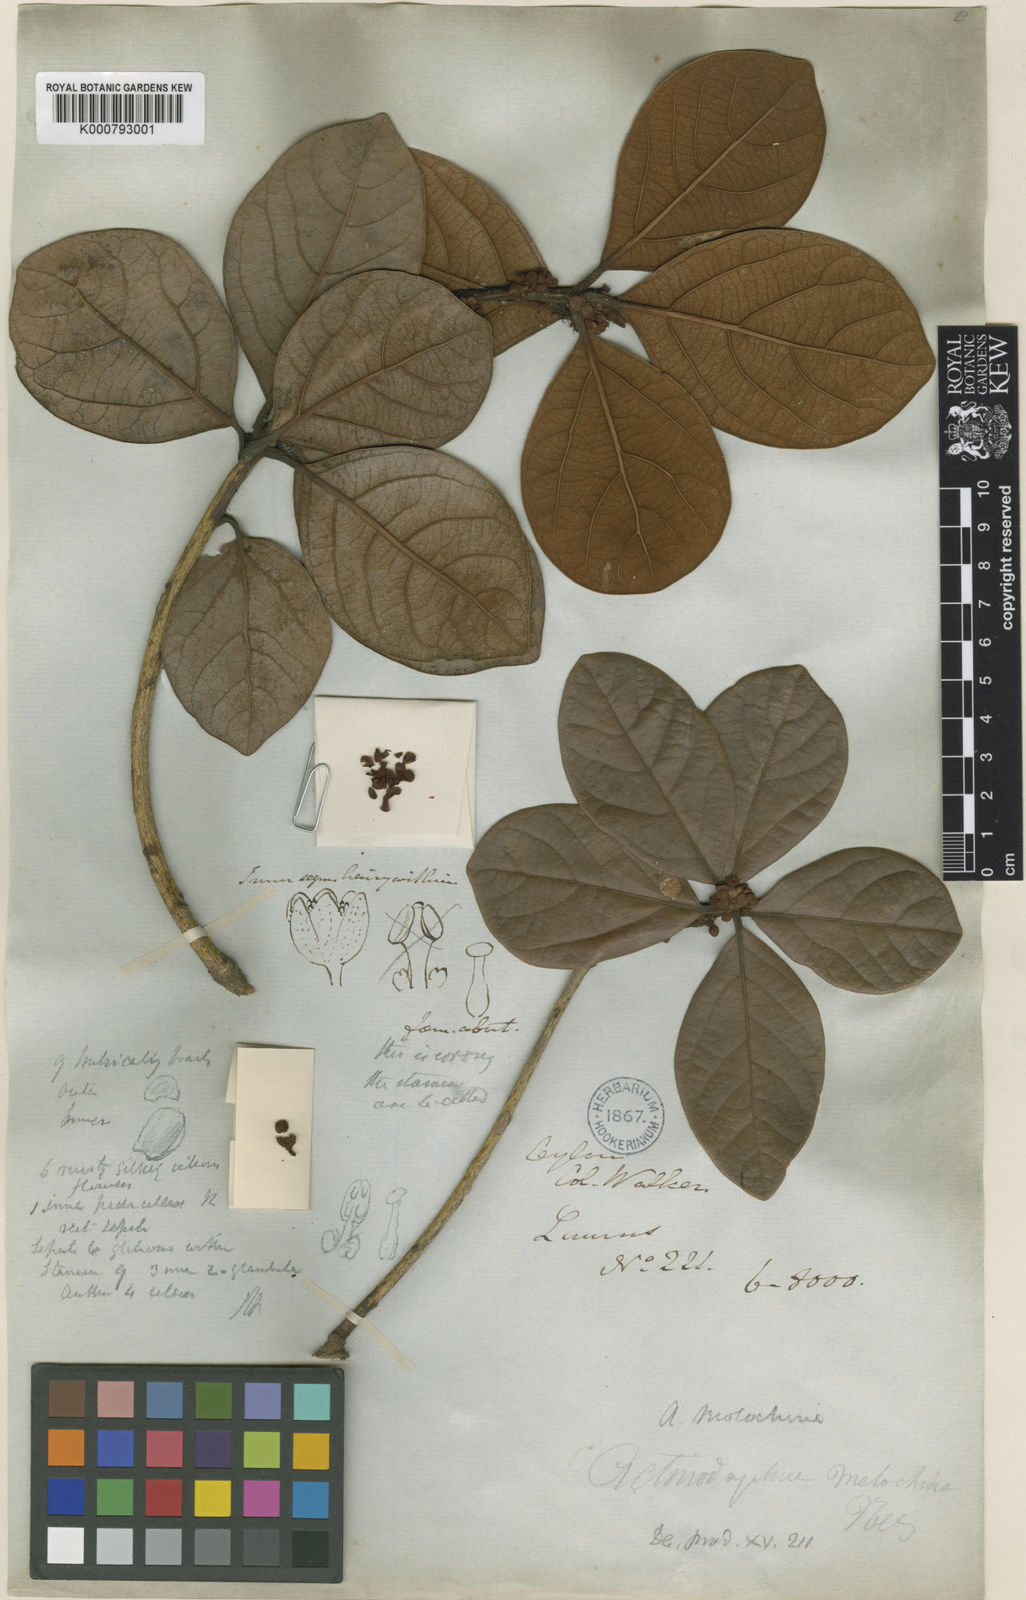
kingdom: Plantae
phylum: Tracheophyta
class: Magnoliopsida
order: Laurales
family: Lauraceae
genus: Actinodaphne
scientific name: Actinodaphne molochina
